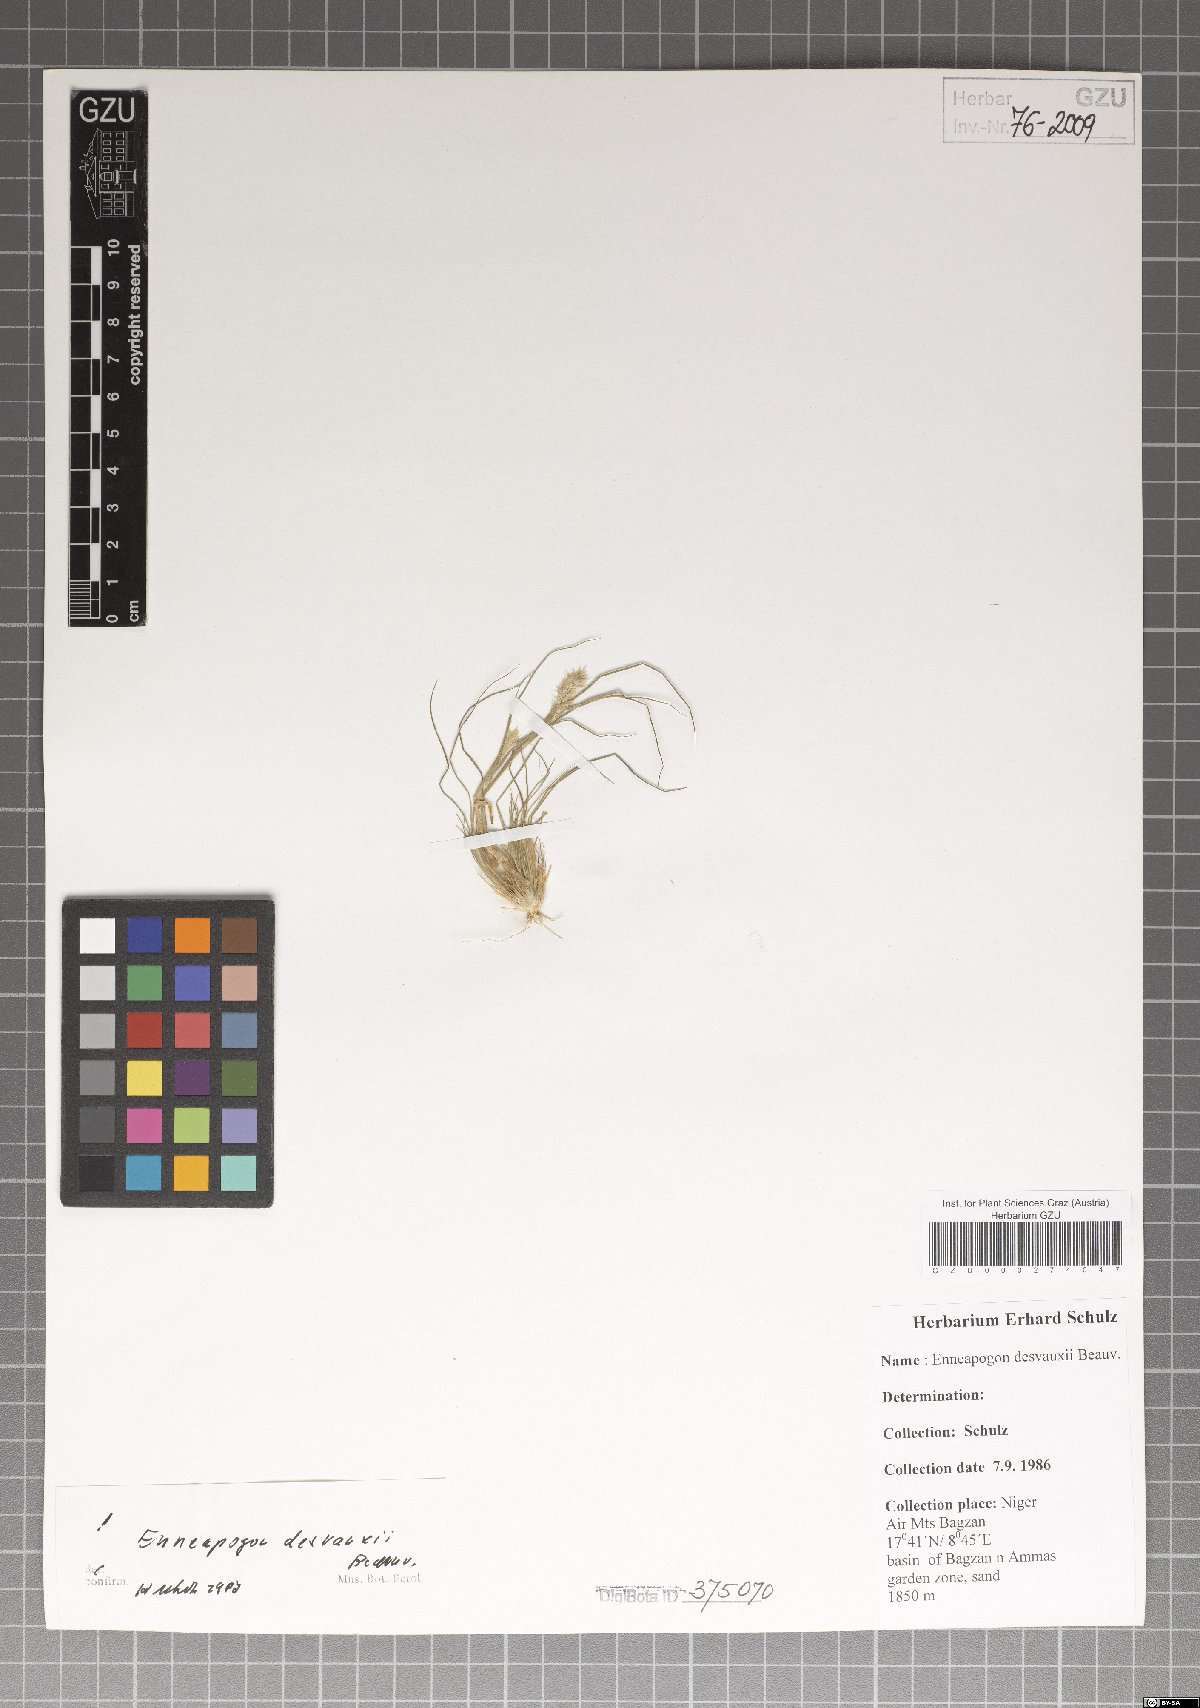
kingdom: Plantae
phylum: Tracheophyta
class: Liliopsida
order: Poales
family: Poaceae
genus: Enneapogon
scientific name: Enneapogon desvauxii
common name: Feather pappus grass
